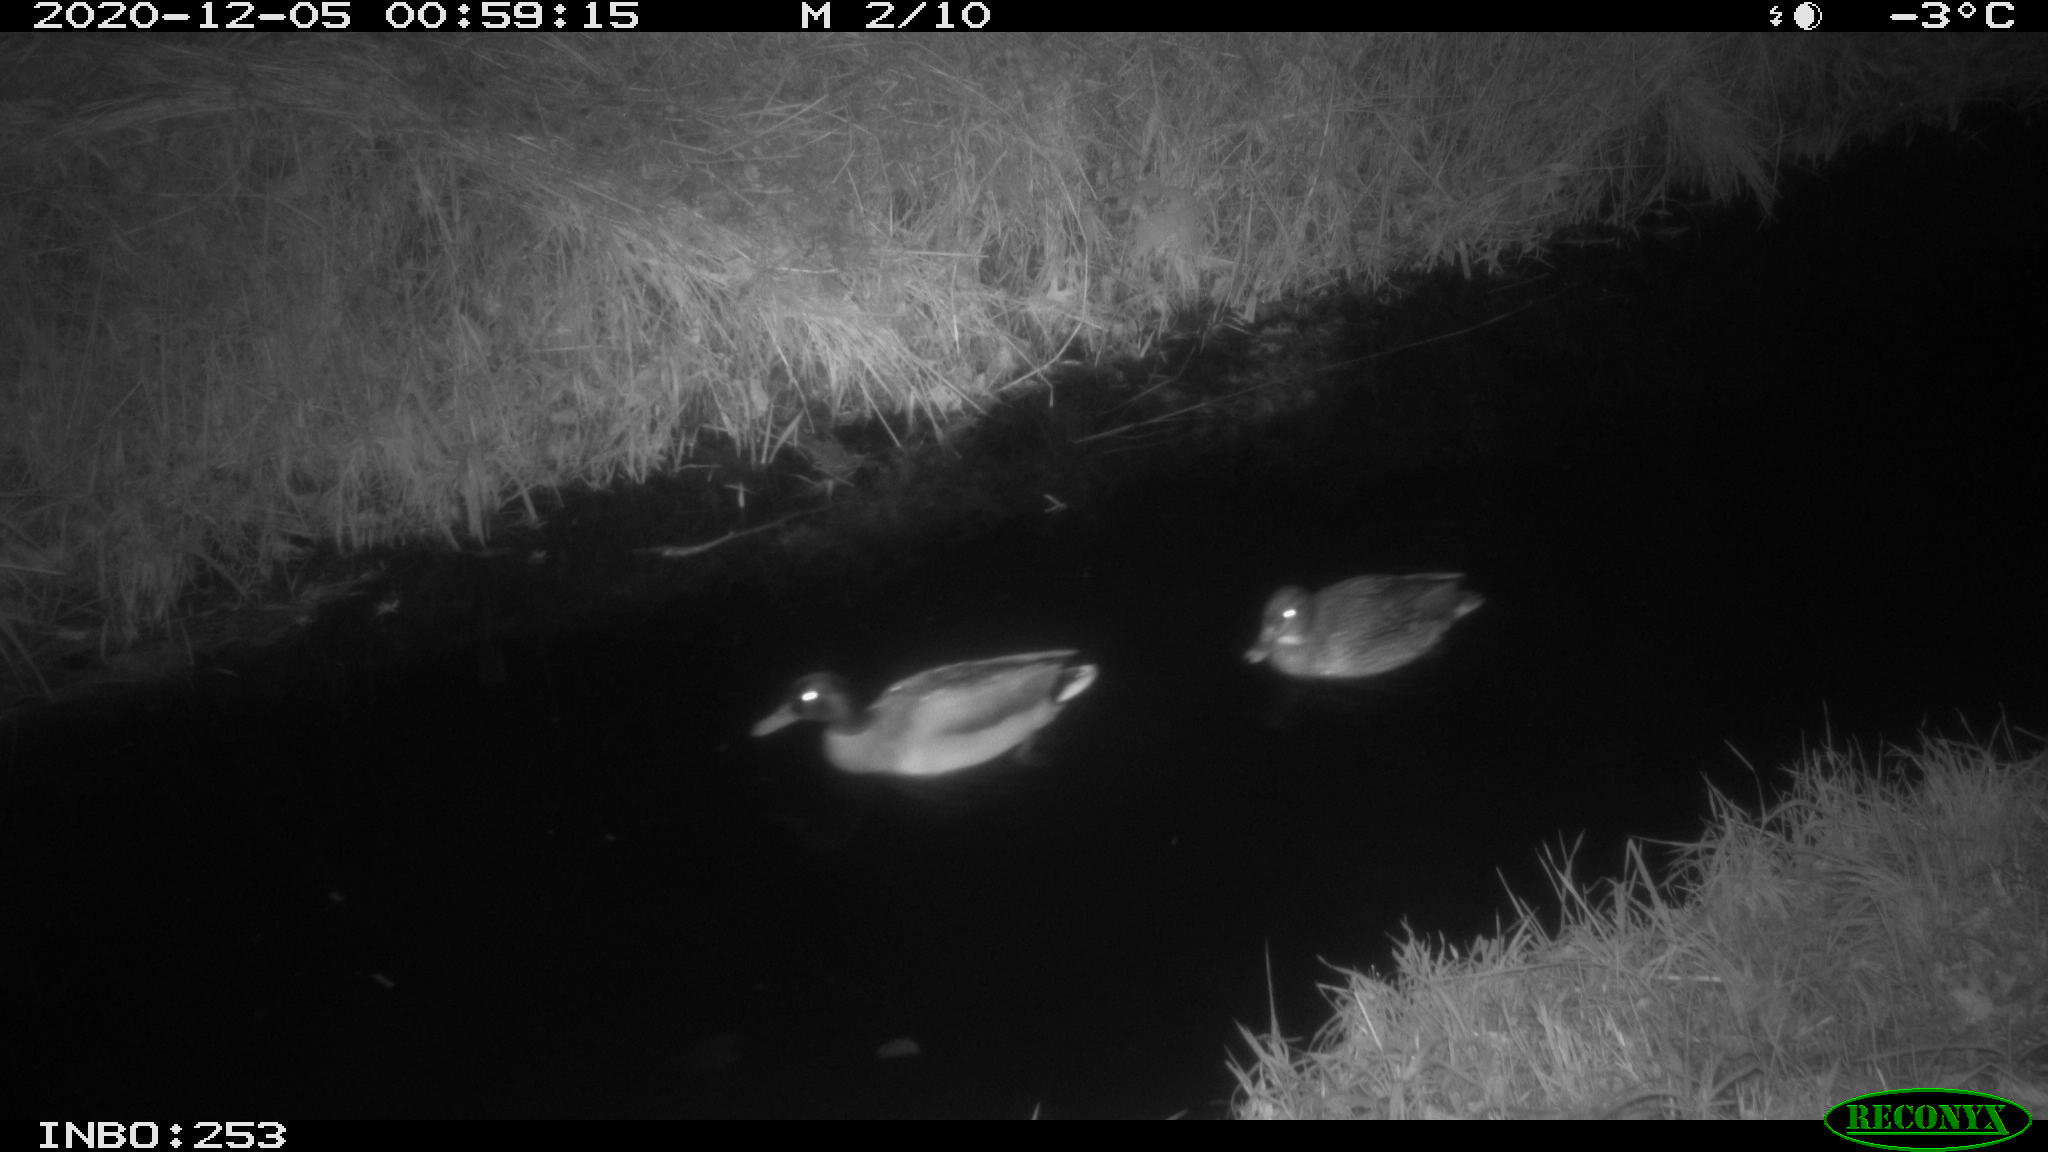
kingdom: Animalia
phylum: Chordata
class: Aves
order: Anseriformes
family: Anatidae
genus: Anas
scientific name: Anas platyrhynchos
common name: Mallard
